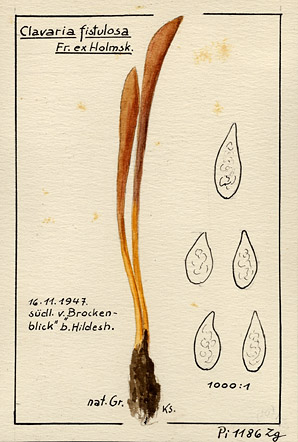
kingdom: Fungi
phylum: Basidiomycota
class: Agaricomycetes
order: Agaricales
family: Typhulaceae
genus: Typhula
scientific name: Typhula fistulosa
